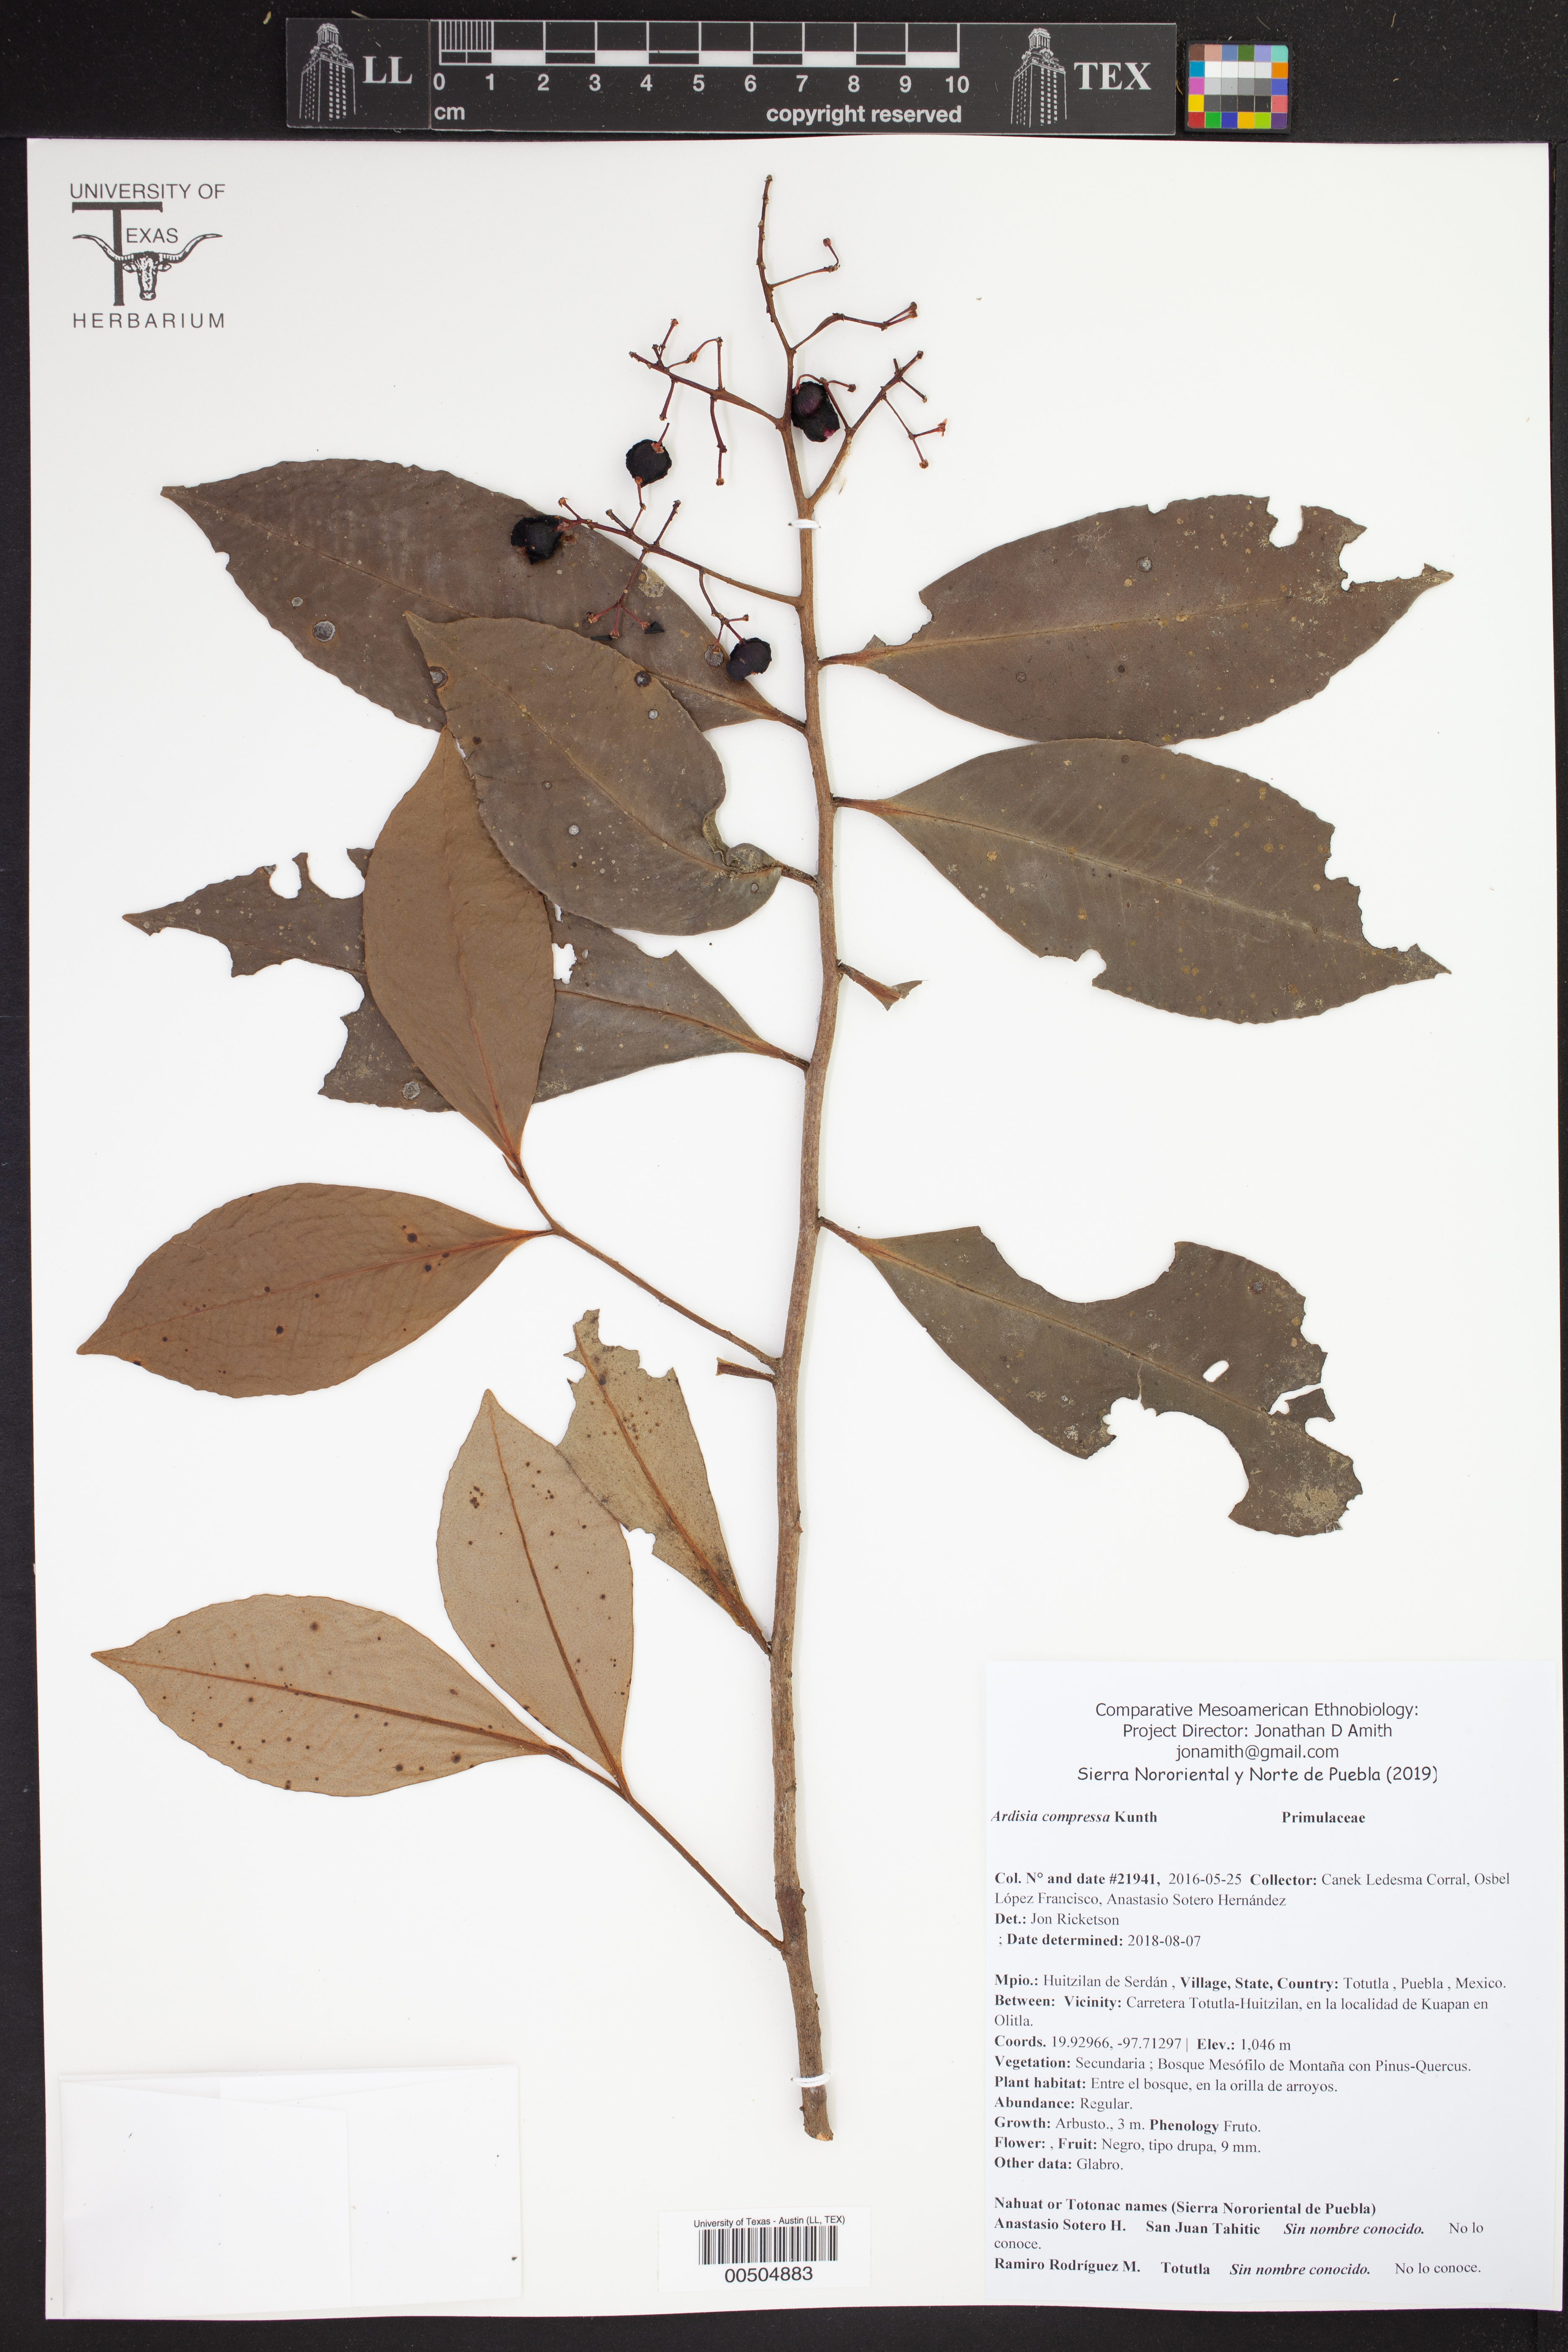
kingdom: Plantae
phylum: Tracheophyta
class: Magnoliopsida
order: Ericales
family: Primulaceae
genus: Ardisia
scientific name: Ardisia compressa
